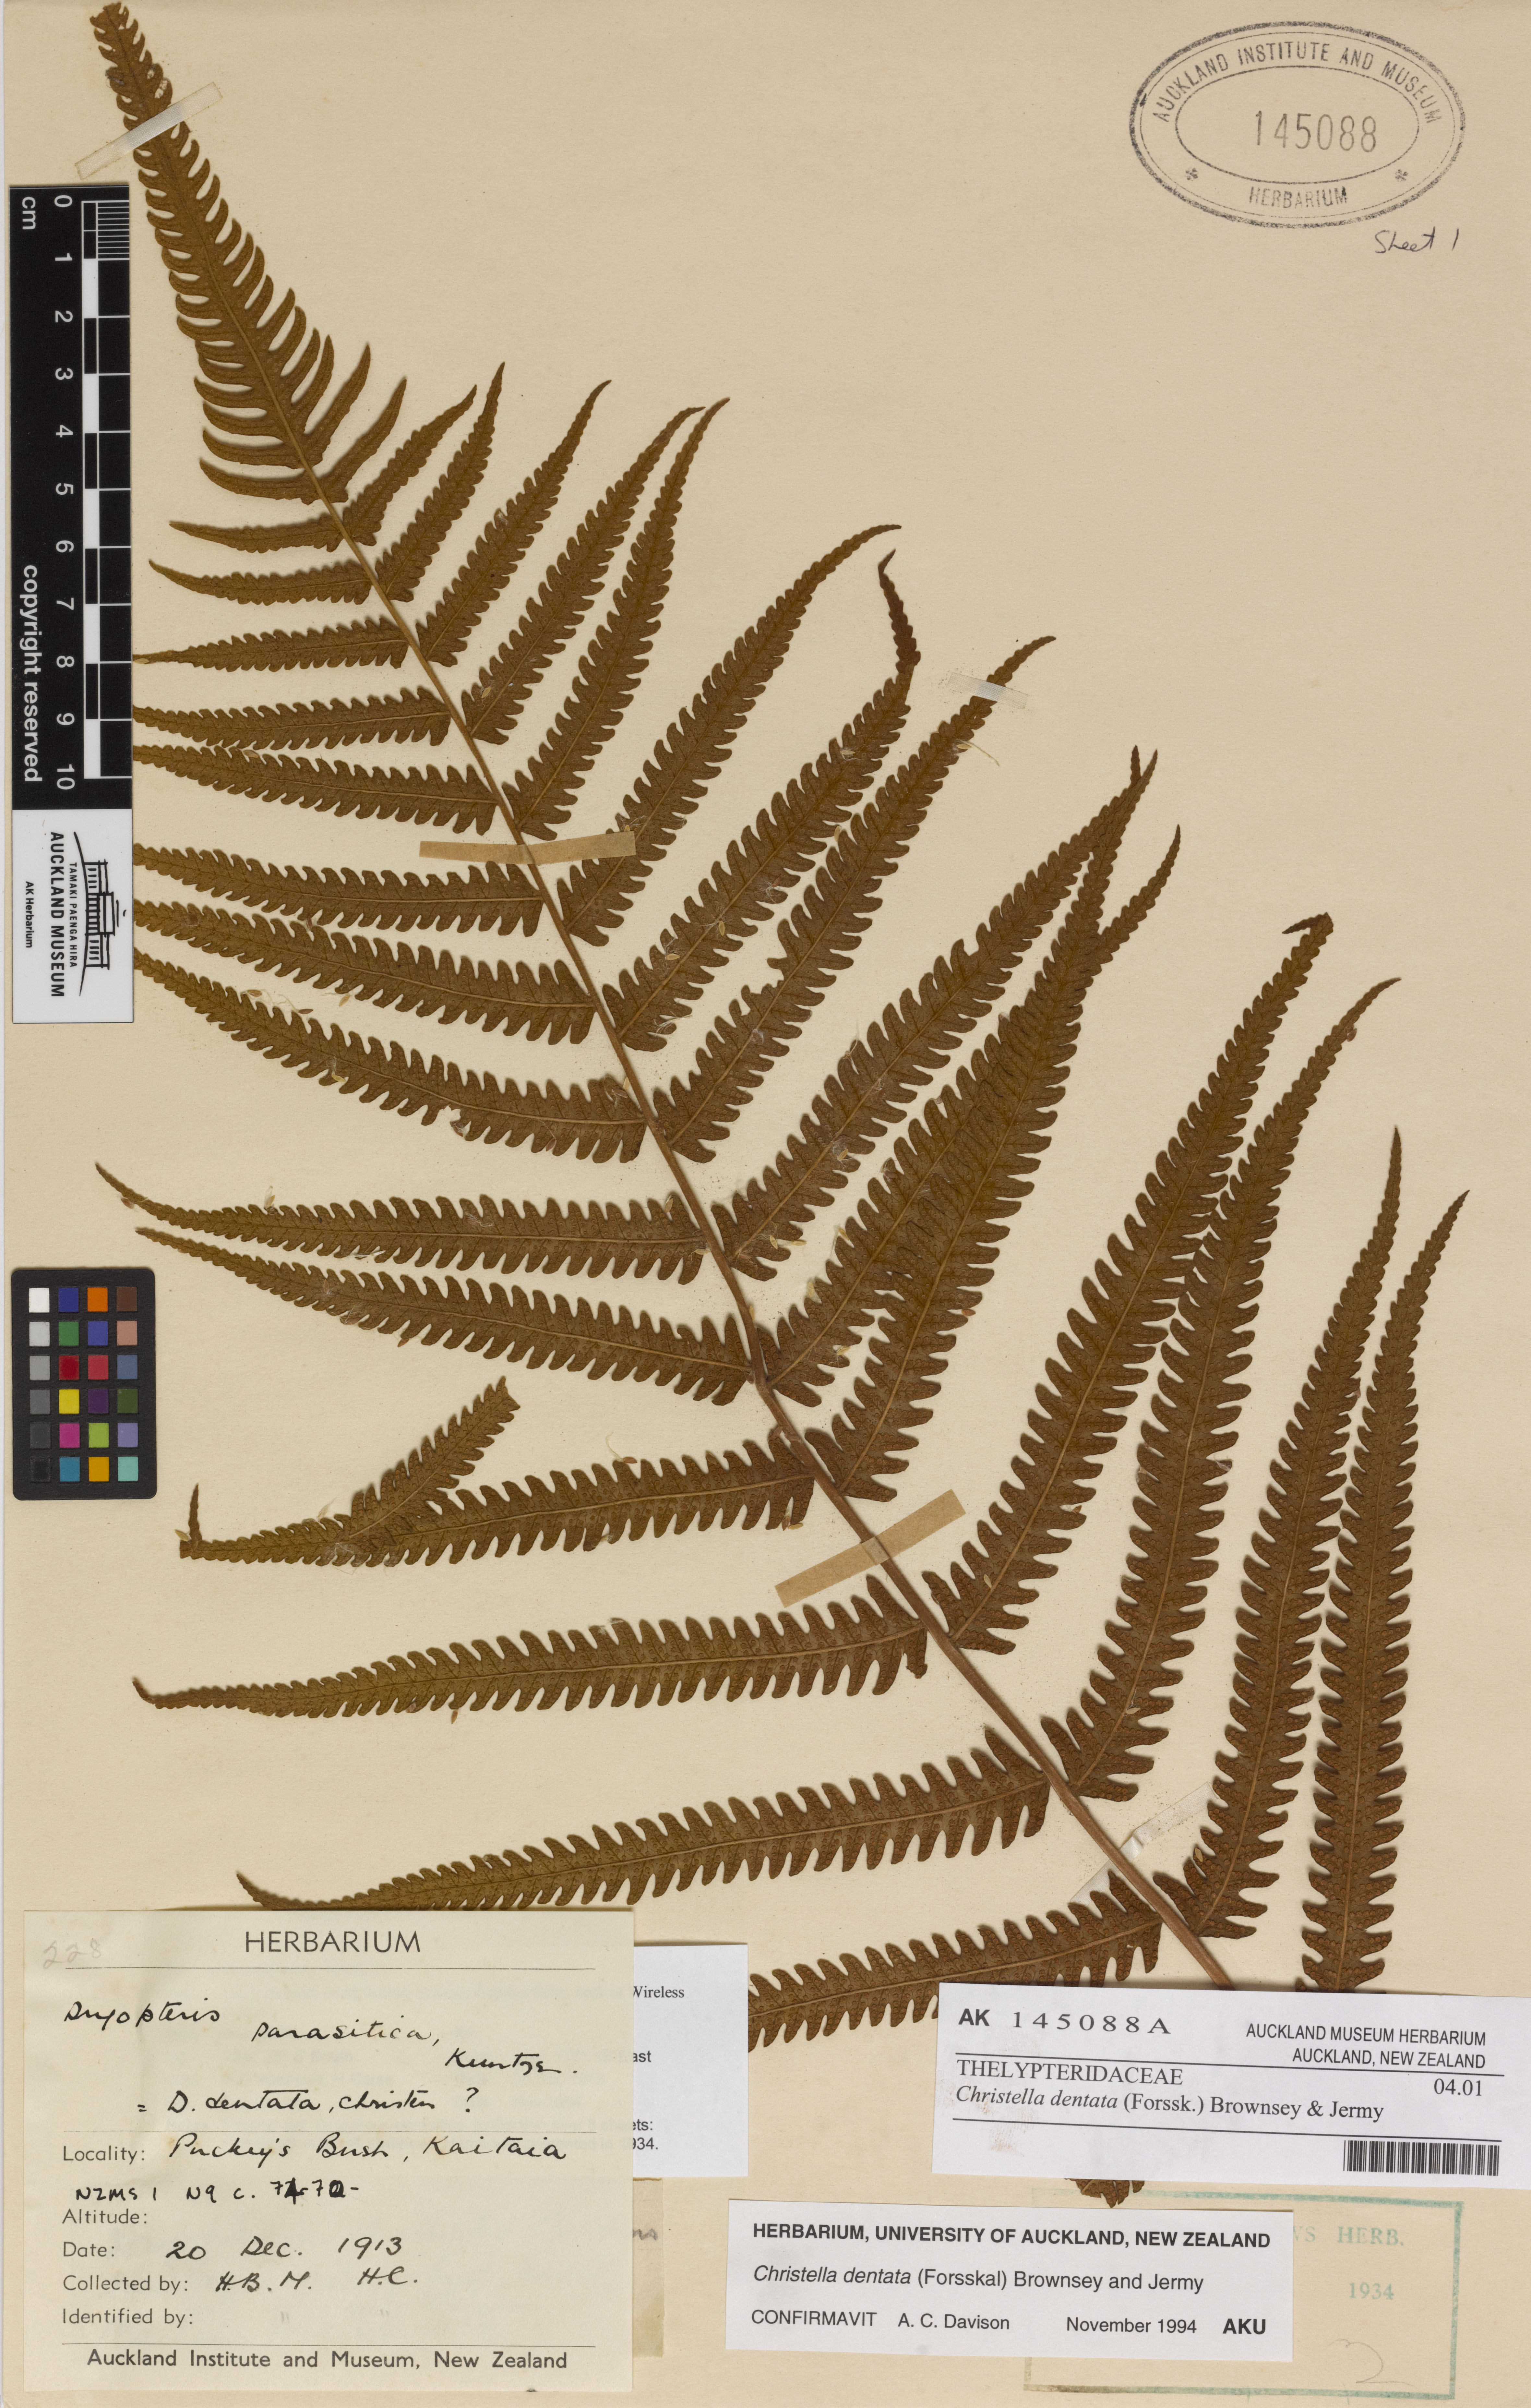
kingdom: Plantae
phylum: Tracheophyta
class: Polypodiopsida
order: Polypodiales
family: Thelypteridaceae
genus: Christella
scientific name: Christella dentata
